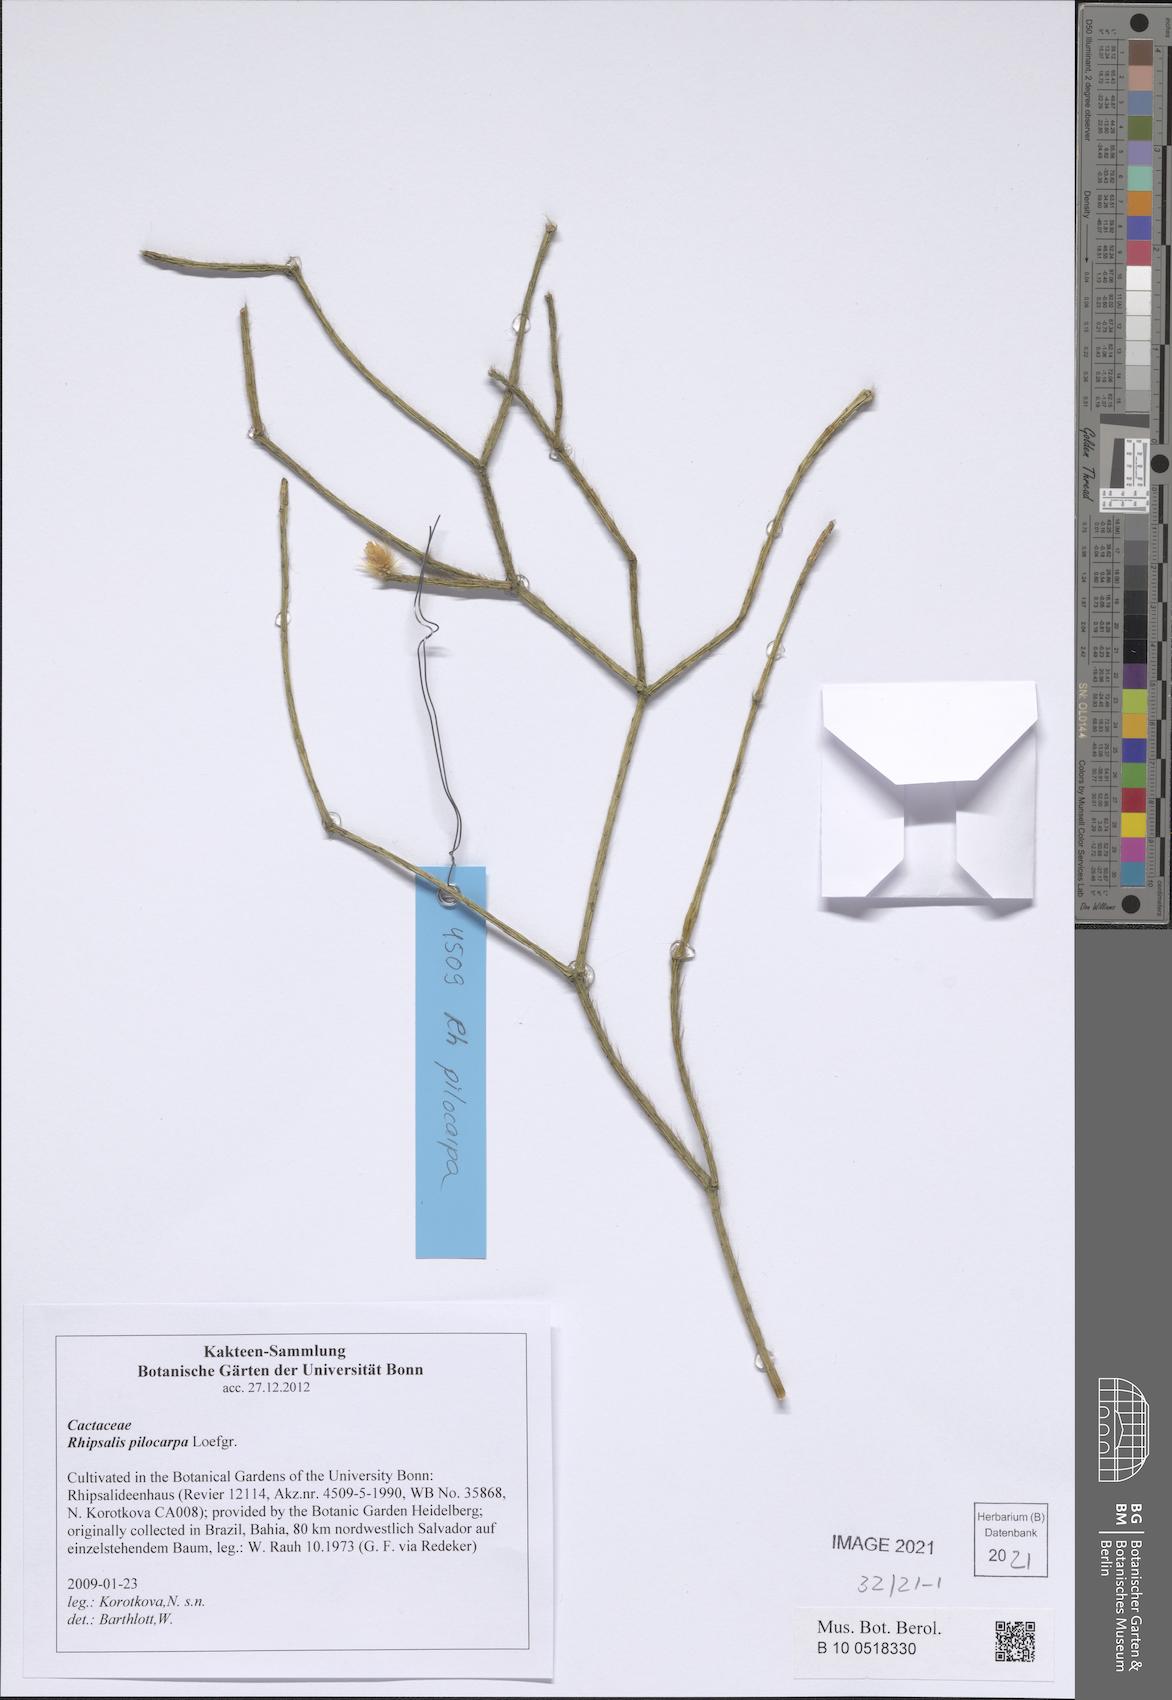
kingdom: Plantae
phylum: Tracheophyta
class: Magnoliopsida
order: Caryophyllales
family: Cactaceae
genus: Rhipsalis
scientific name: Rhipsalis pilocarpa
